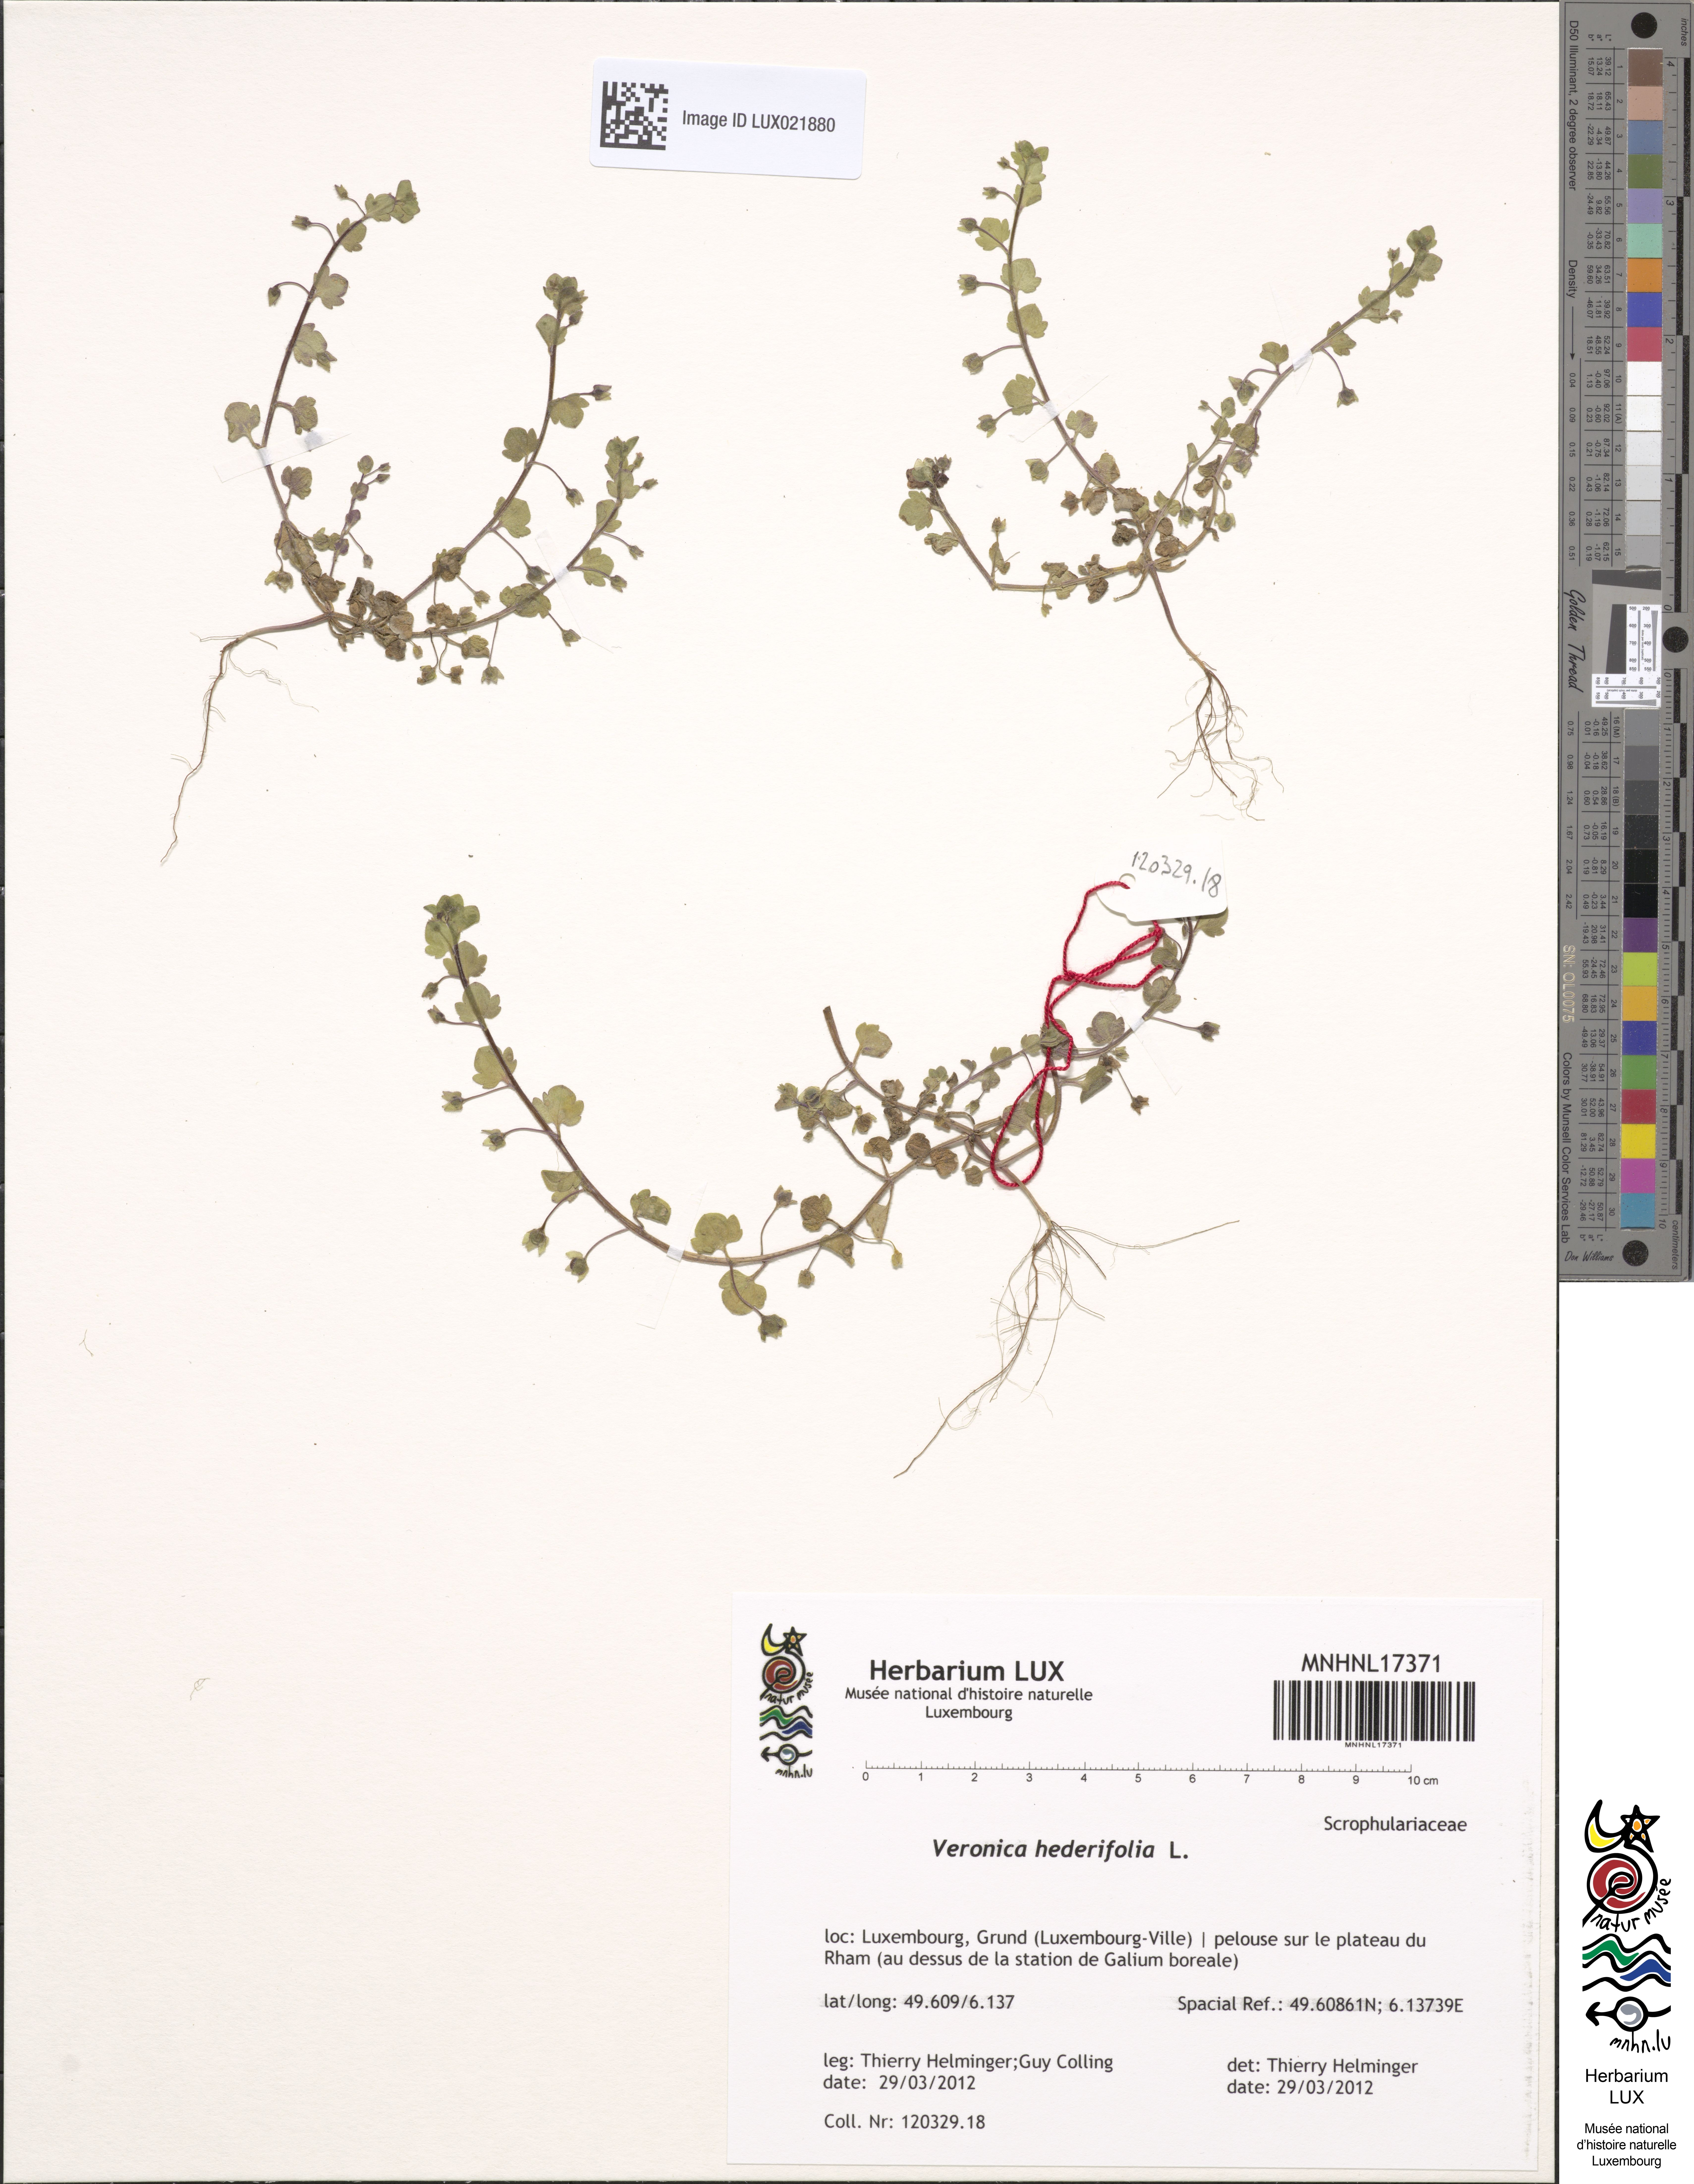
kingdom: Plantae
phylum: Tracheophyta
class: Magnoliopsida
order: Lamiales
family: Plantaginaceae
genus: Veronica
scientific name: Veronica hederifolia
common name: Ivy-leaved speedwell
